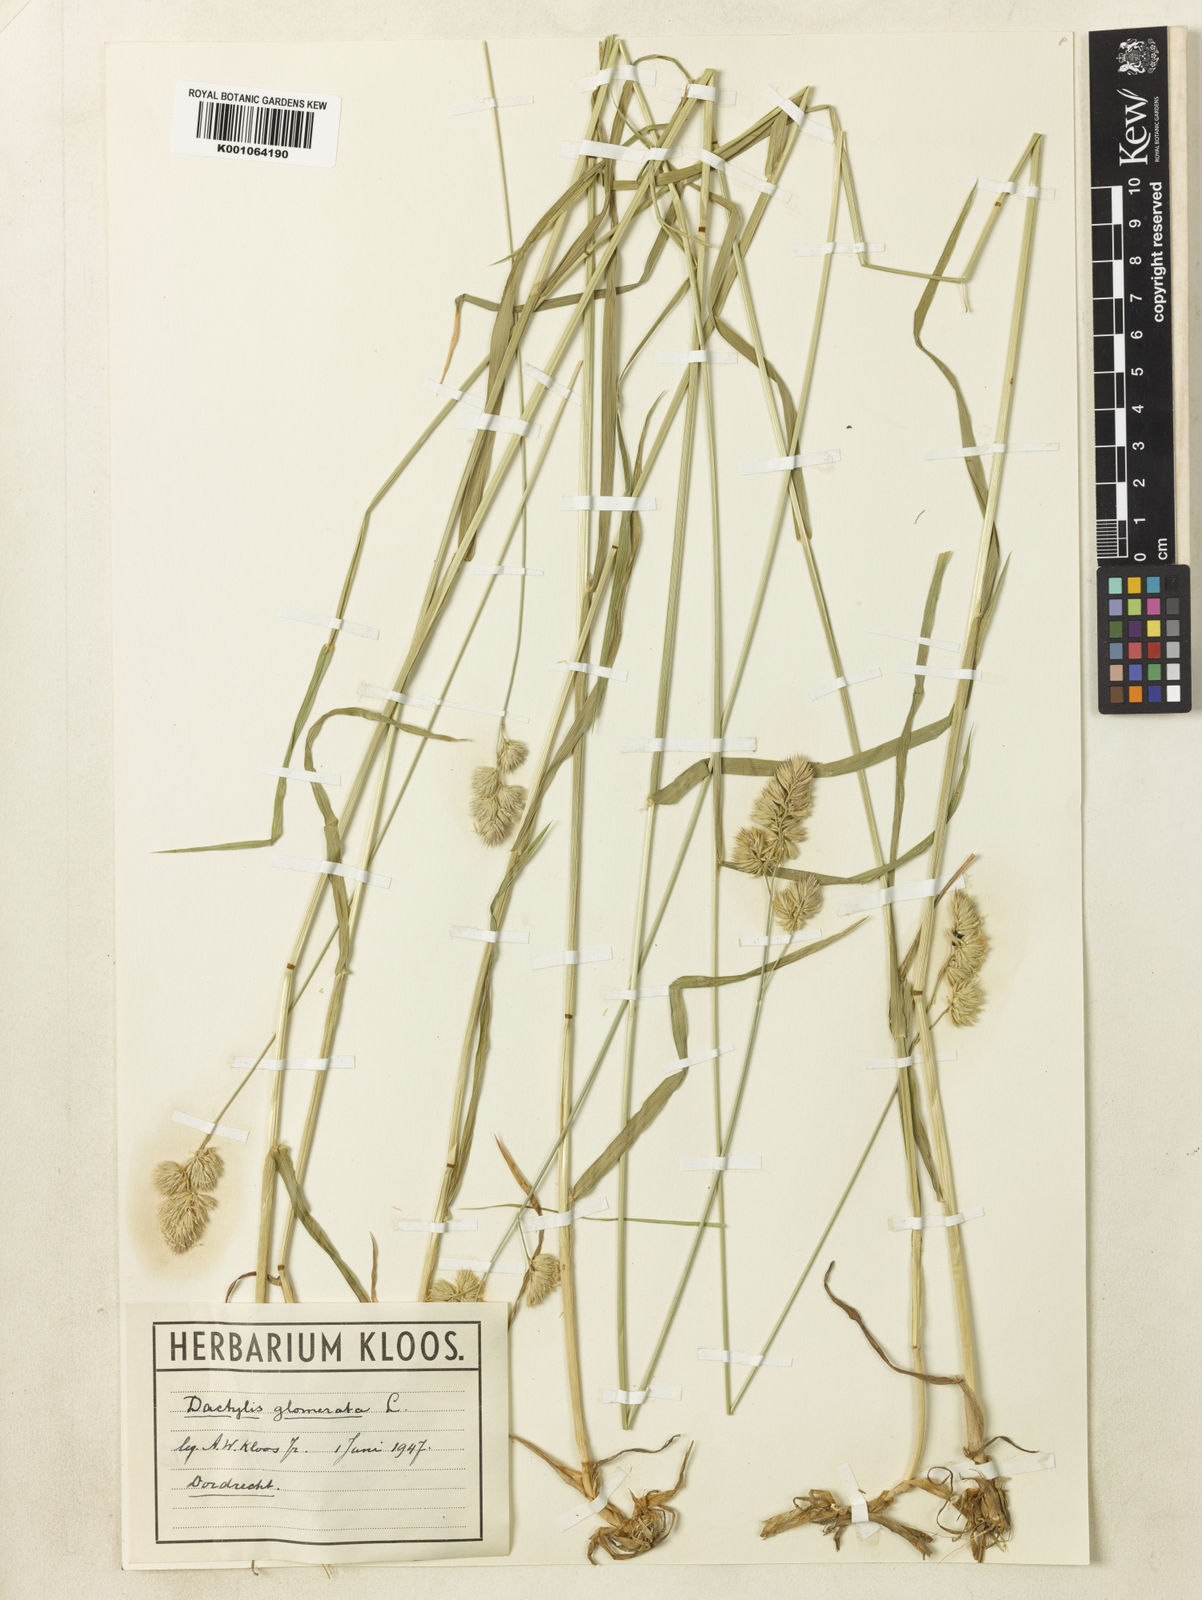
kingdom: Plantae
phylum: Tracheophyta
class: Liliopsida
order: Poales
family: Poaceae
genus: Dactylis
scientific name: Dactylis glomerata
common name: Orchardgrass
